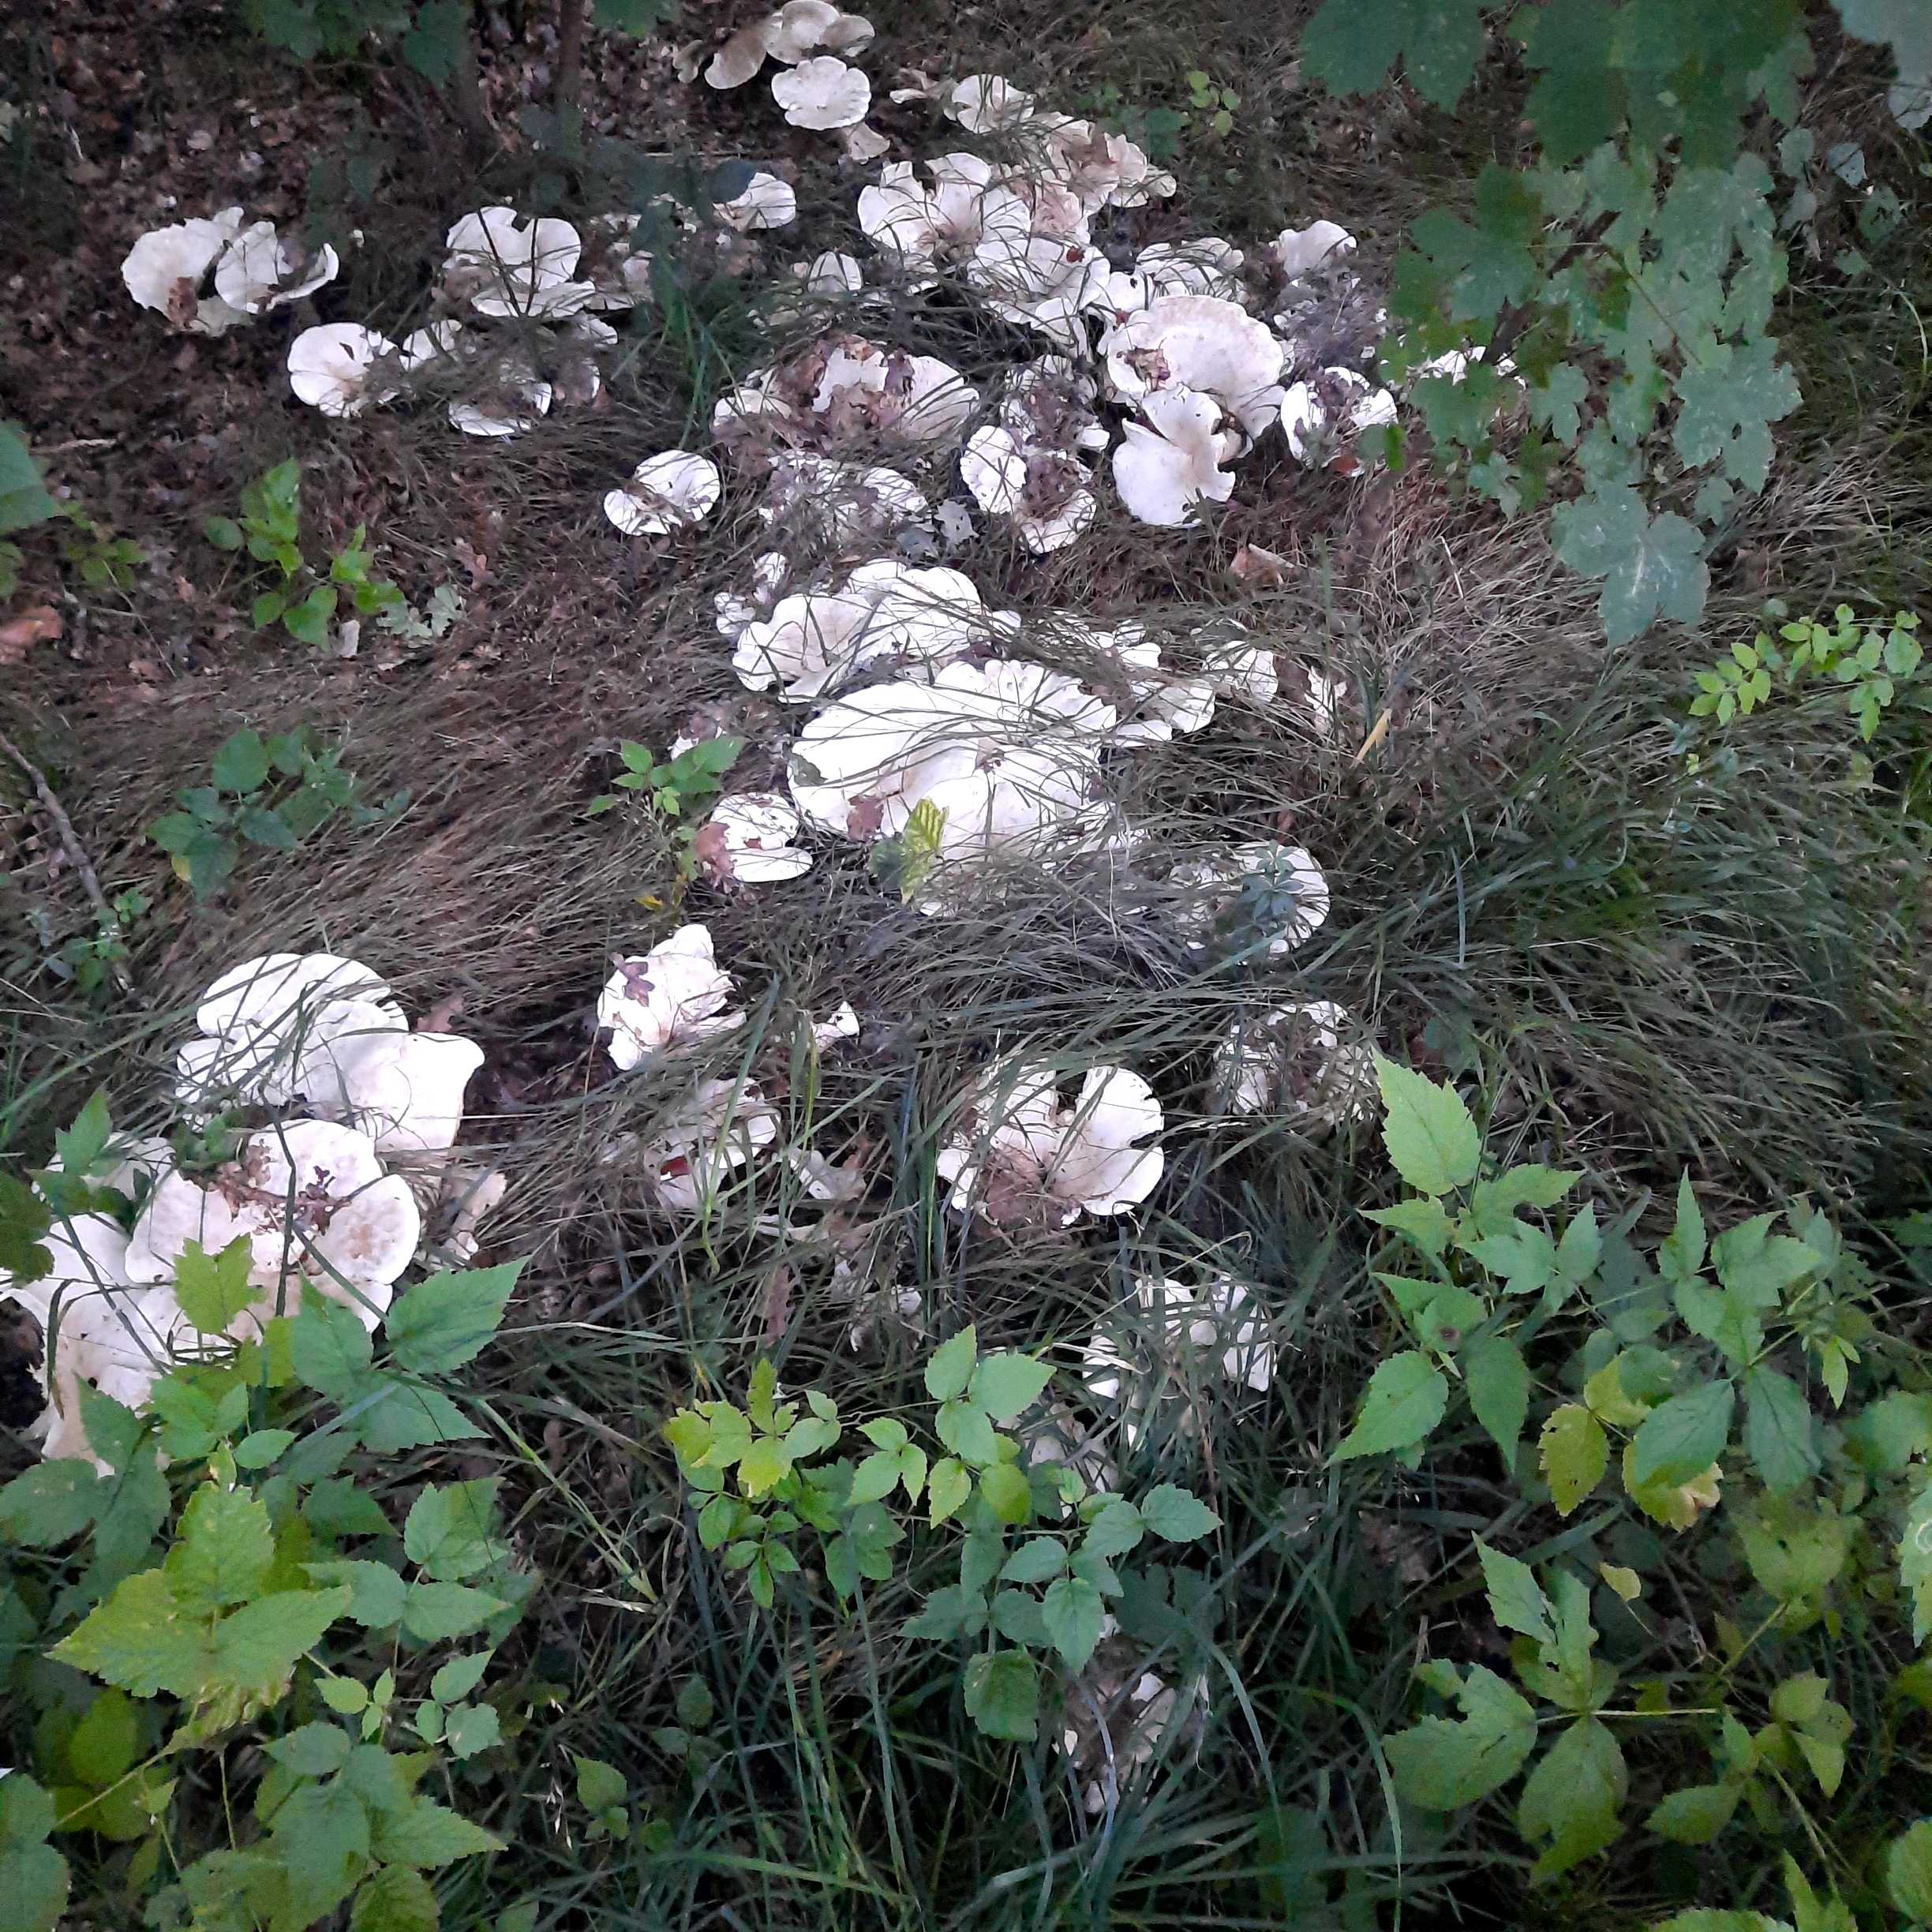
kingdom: Fungi
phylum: Basidiomycota
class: Agaricomycetes
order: Agaricales
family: Tricholomataceae
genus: Aspropaxillus
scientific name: Aspropaxillus giganteus
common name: kæmpe-tragtridderhat
